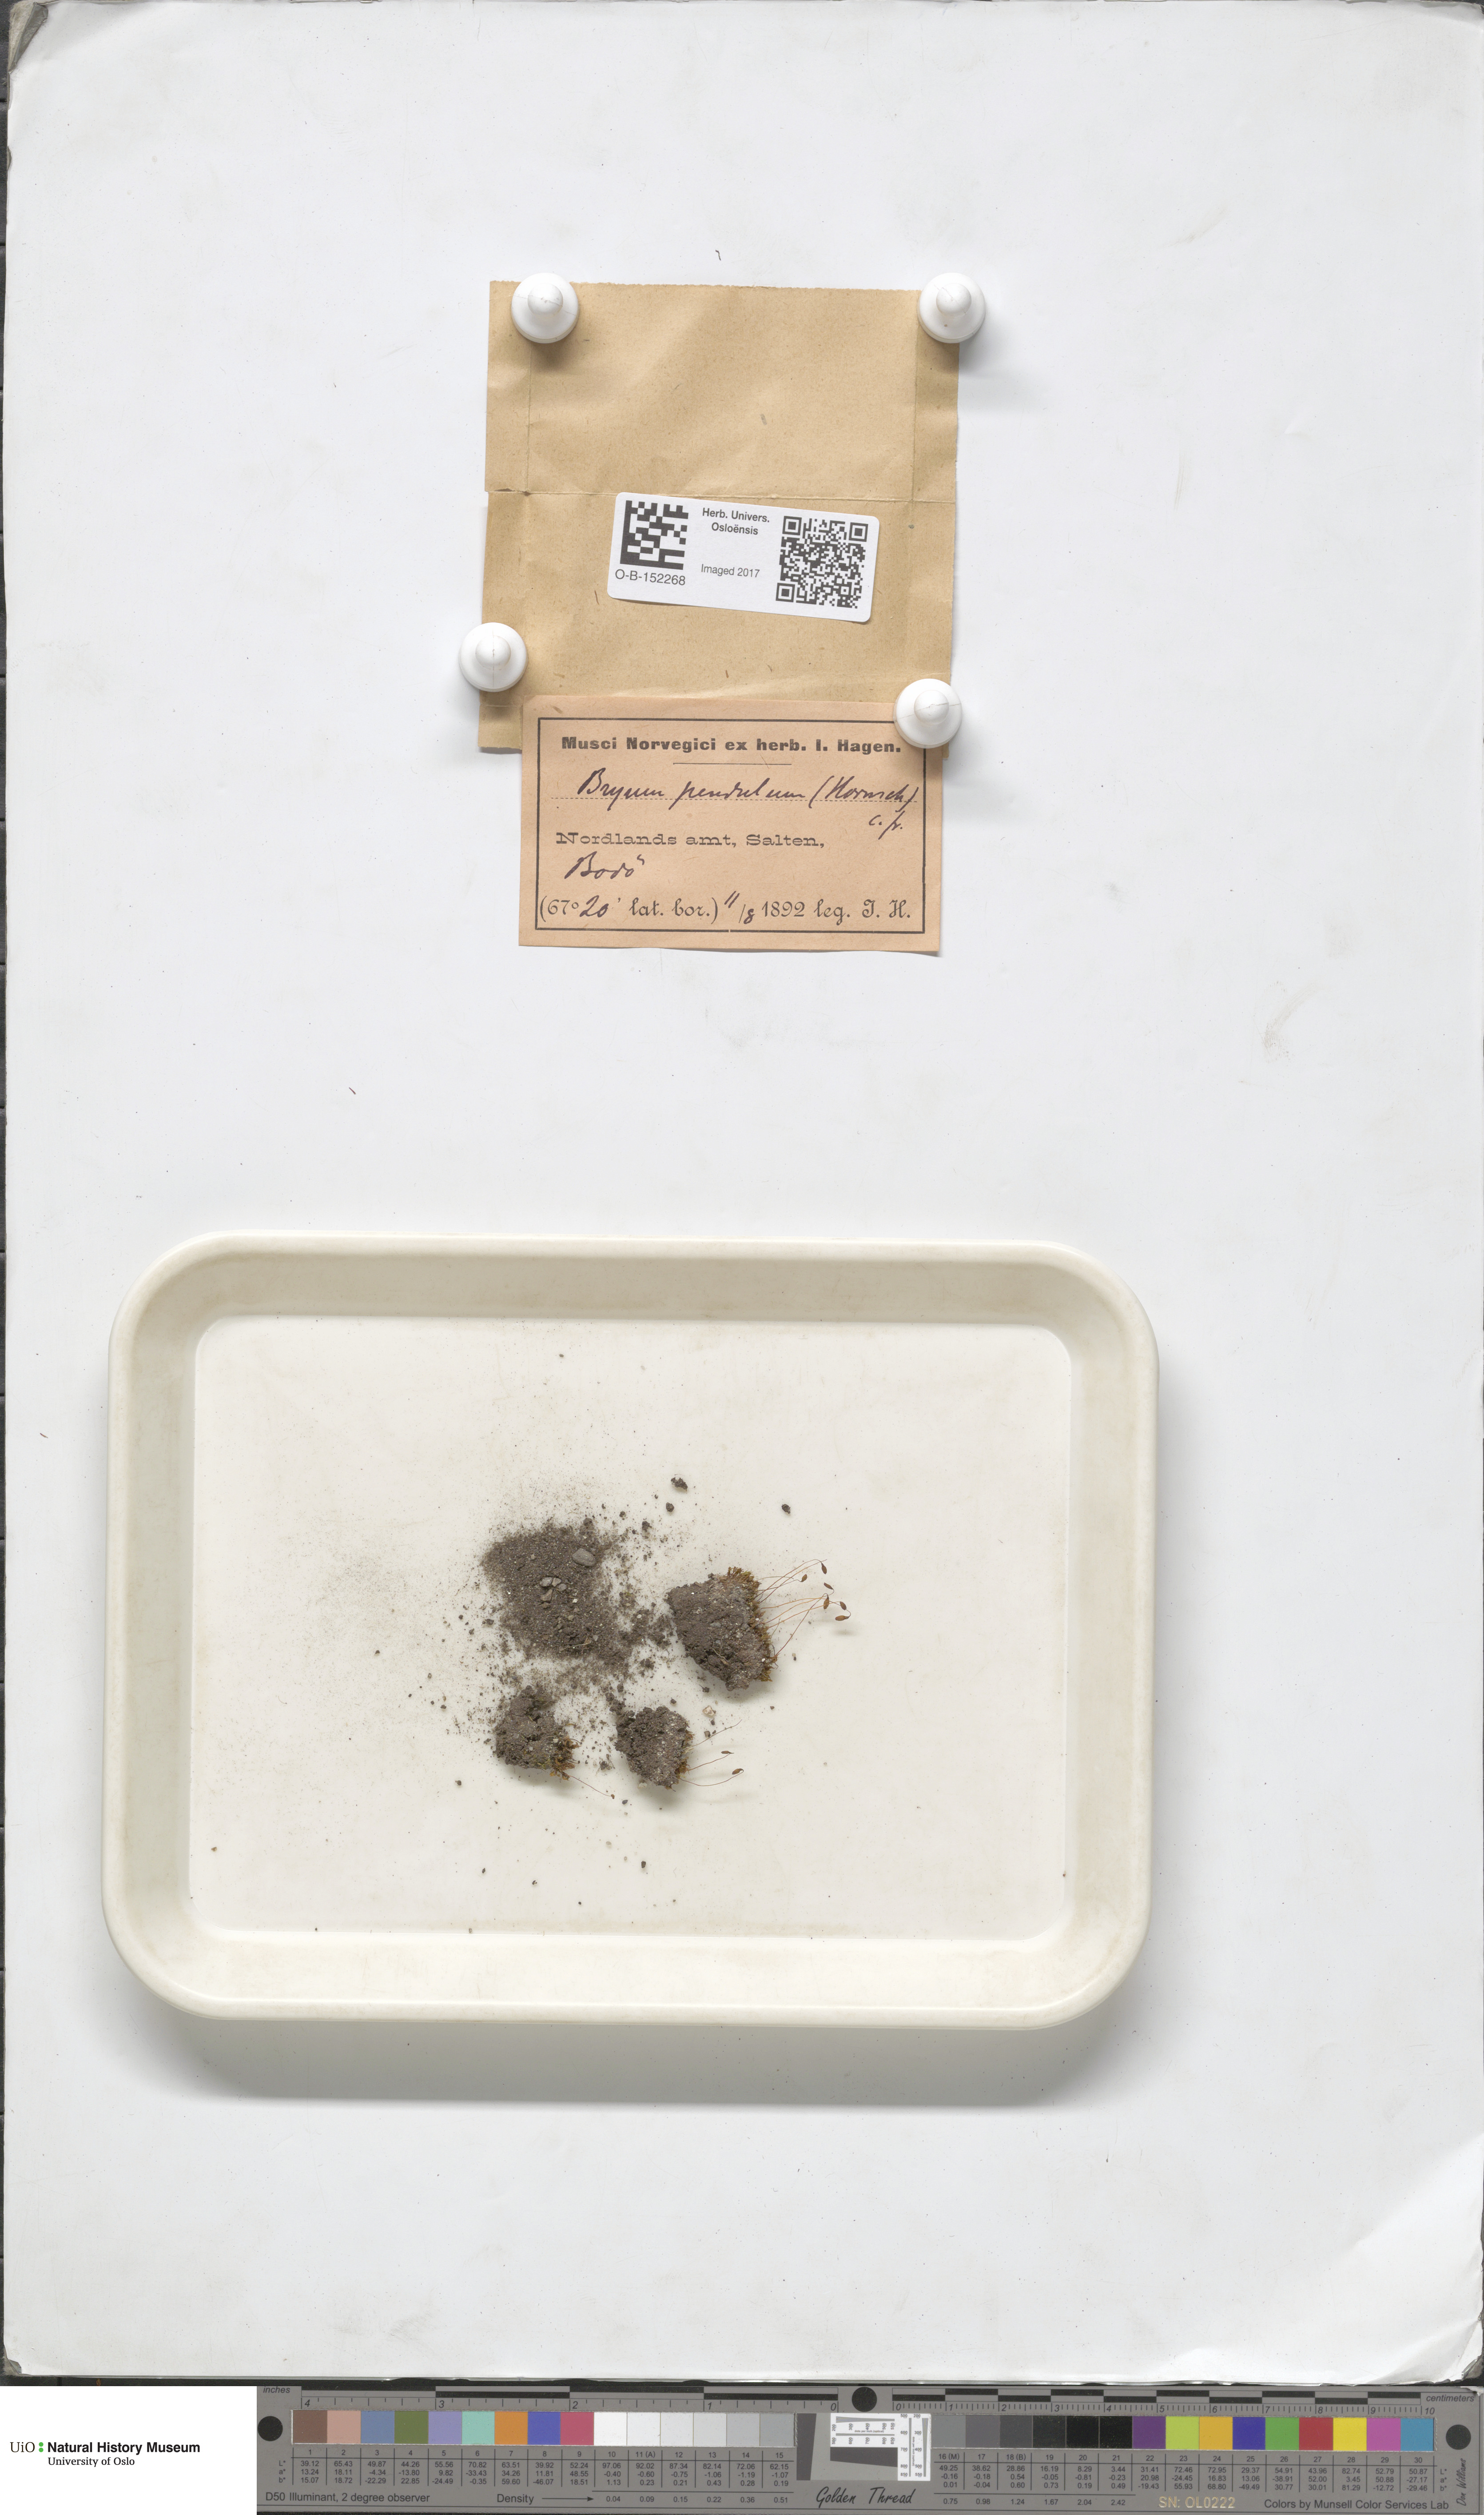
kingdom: Plantae
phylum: Bryophyta
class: Bryopsida
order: Bryales
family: Bryaceae
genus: Ptychostomum
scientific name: Ptychostomum compactum
